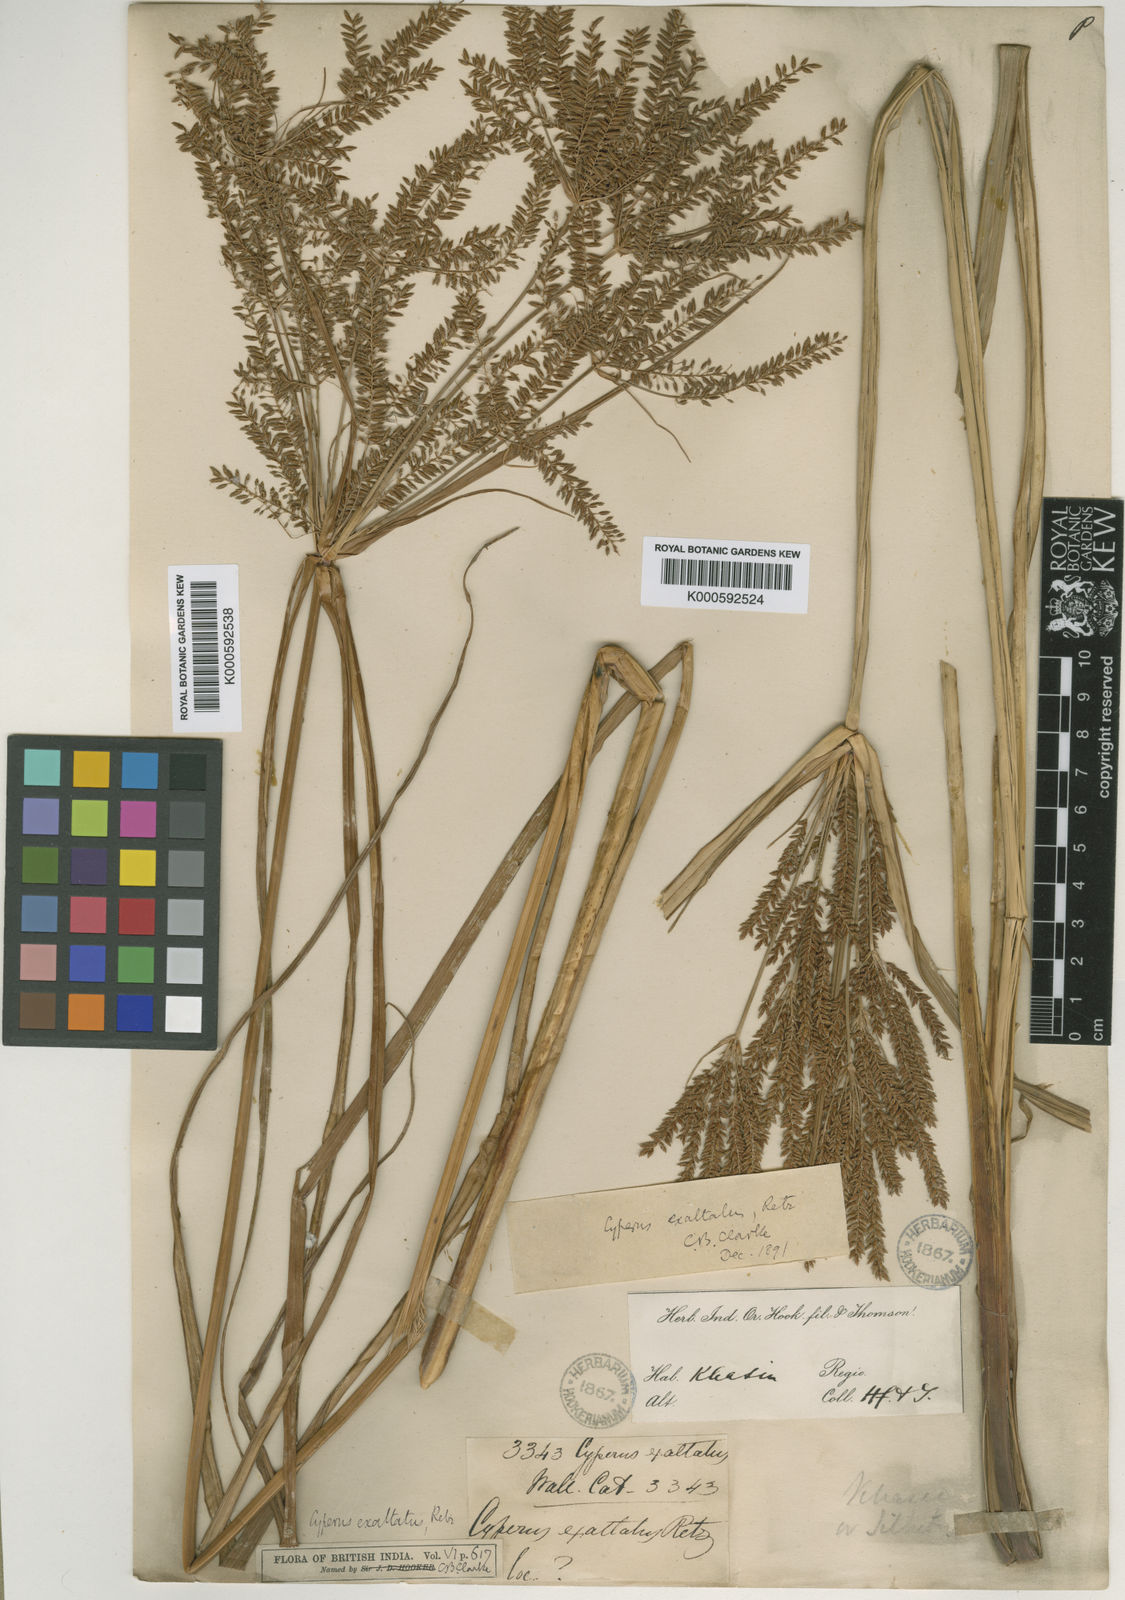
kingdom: Plantae
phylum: Tracheophyta
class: Liliopsida
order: Poales
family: Cyperaceae
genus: Cyperus
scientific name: Cyperus exaltatus
